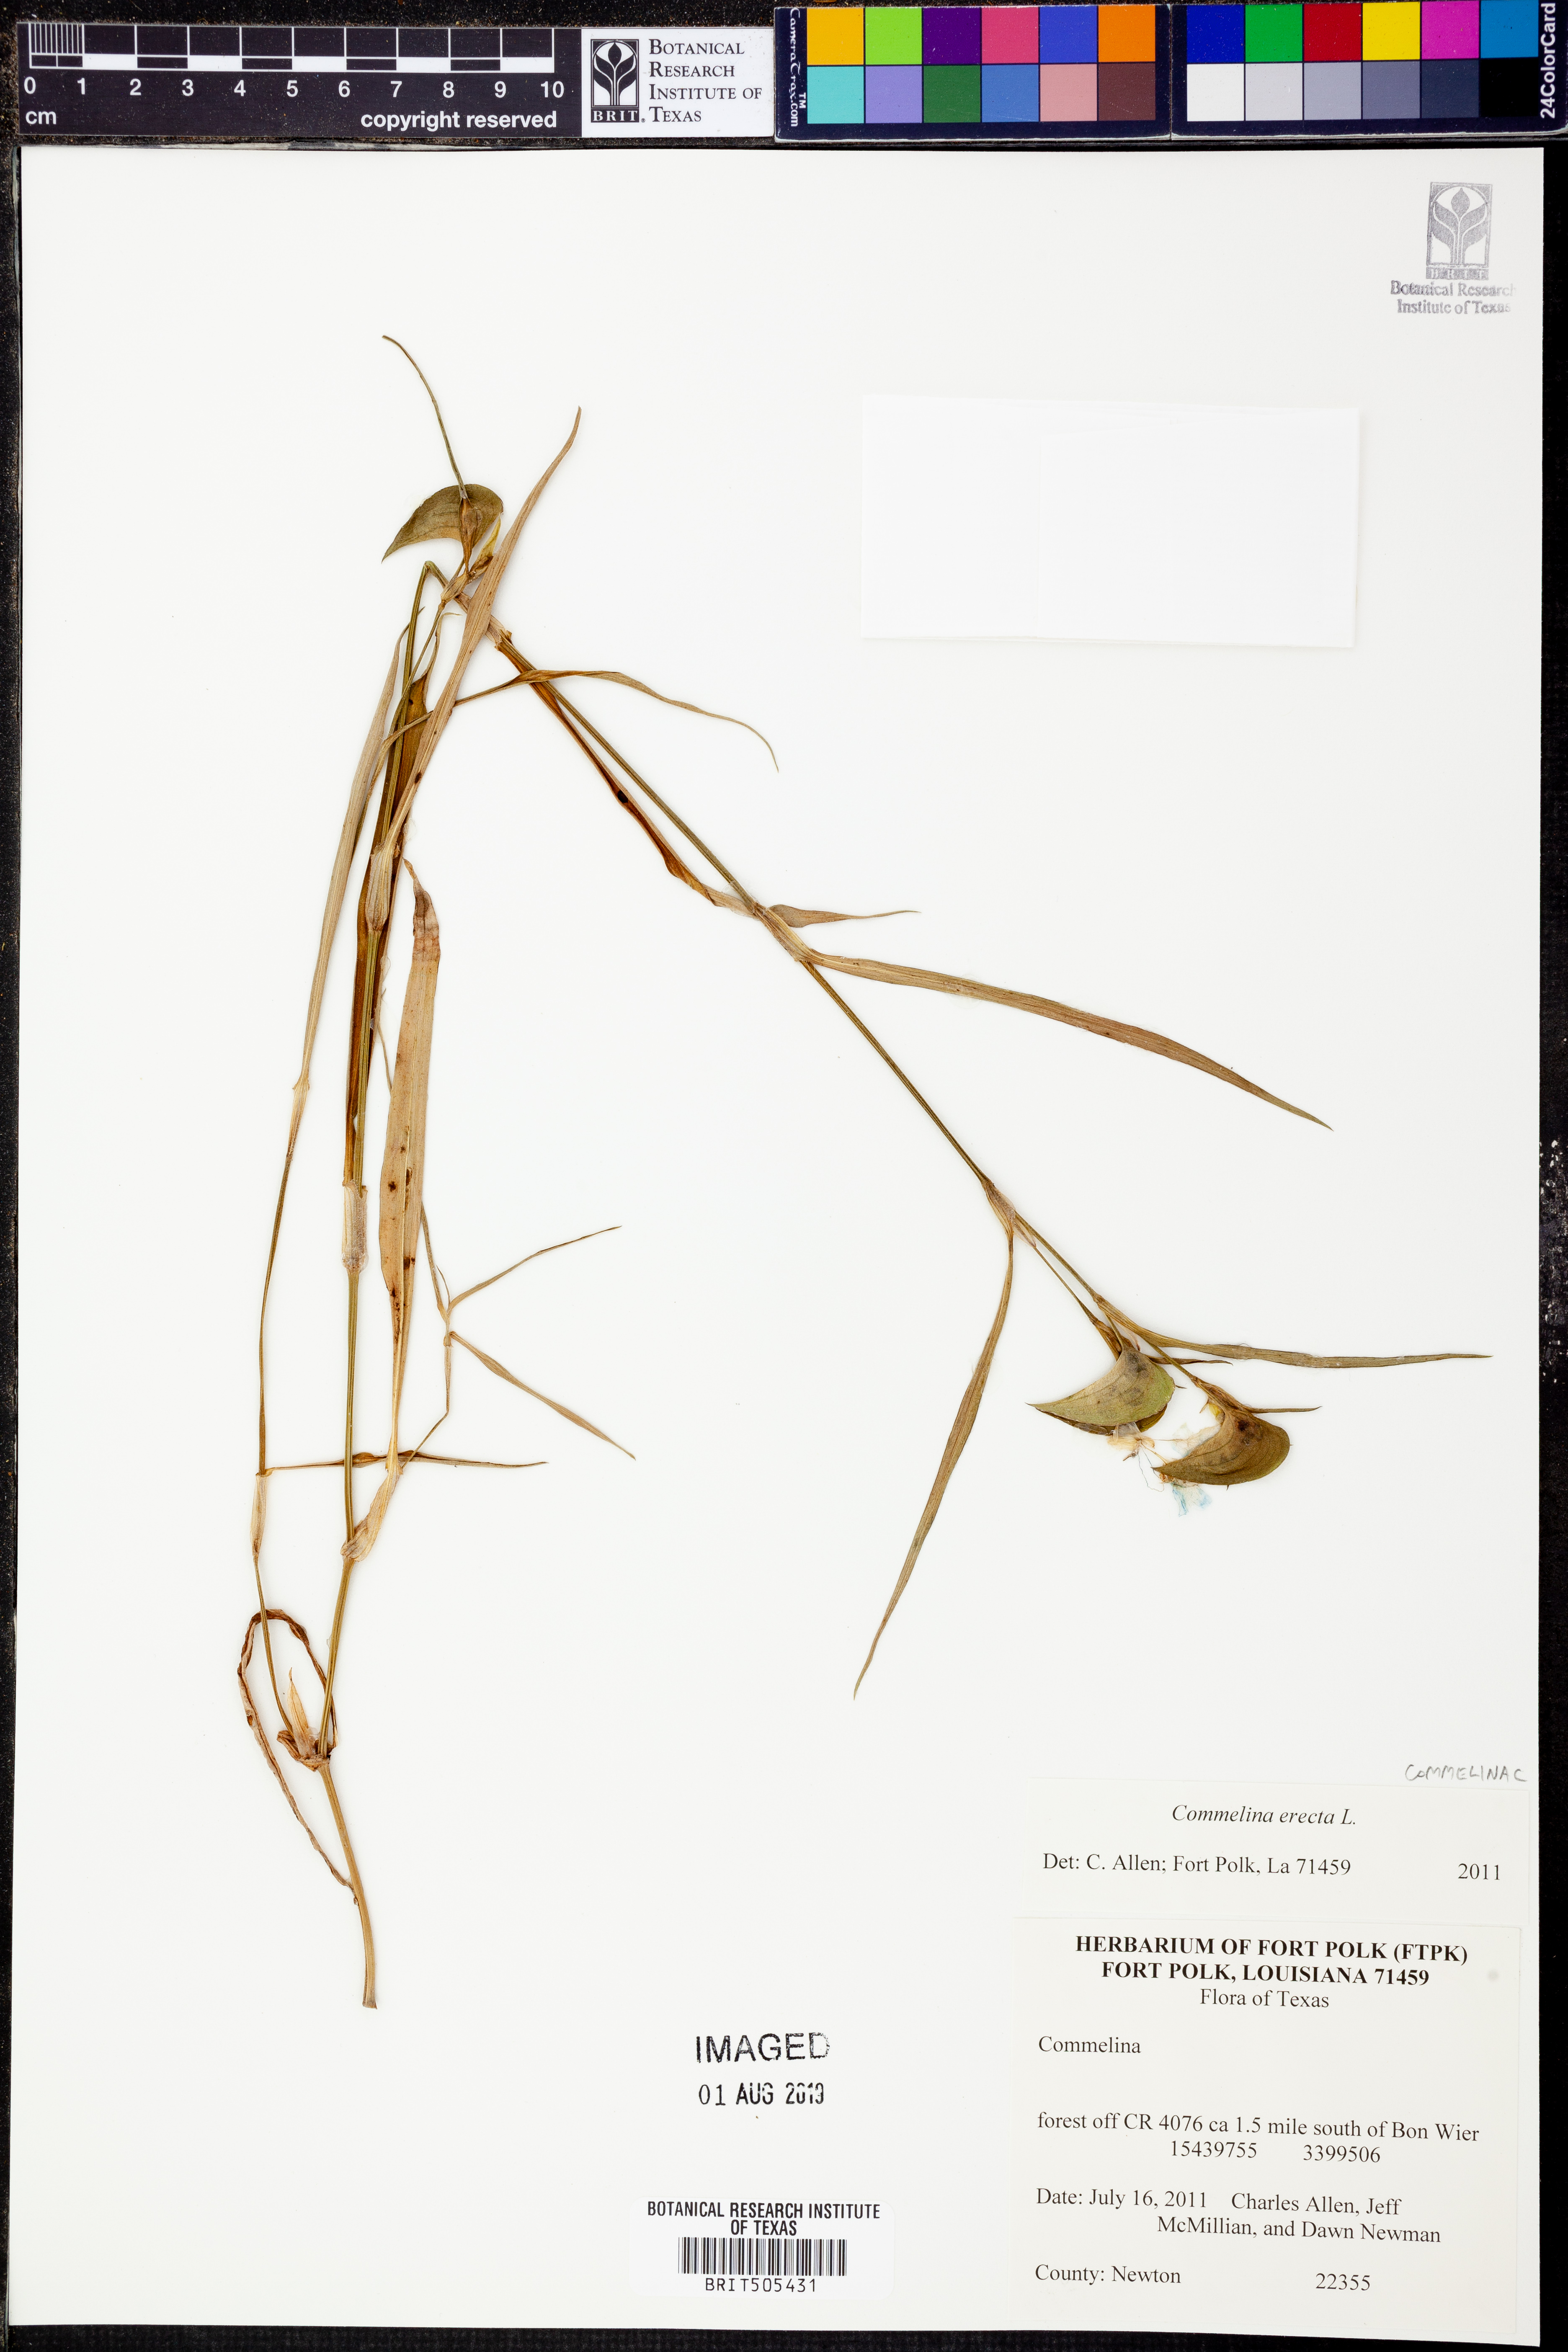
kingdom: Plantae
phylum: Tracheophyta
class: Liliopsida
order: Commelinales
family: Commelinaceae
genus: Commelina
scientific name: Commelina erecta
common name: Blousel blommetjie
